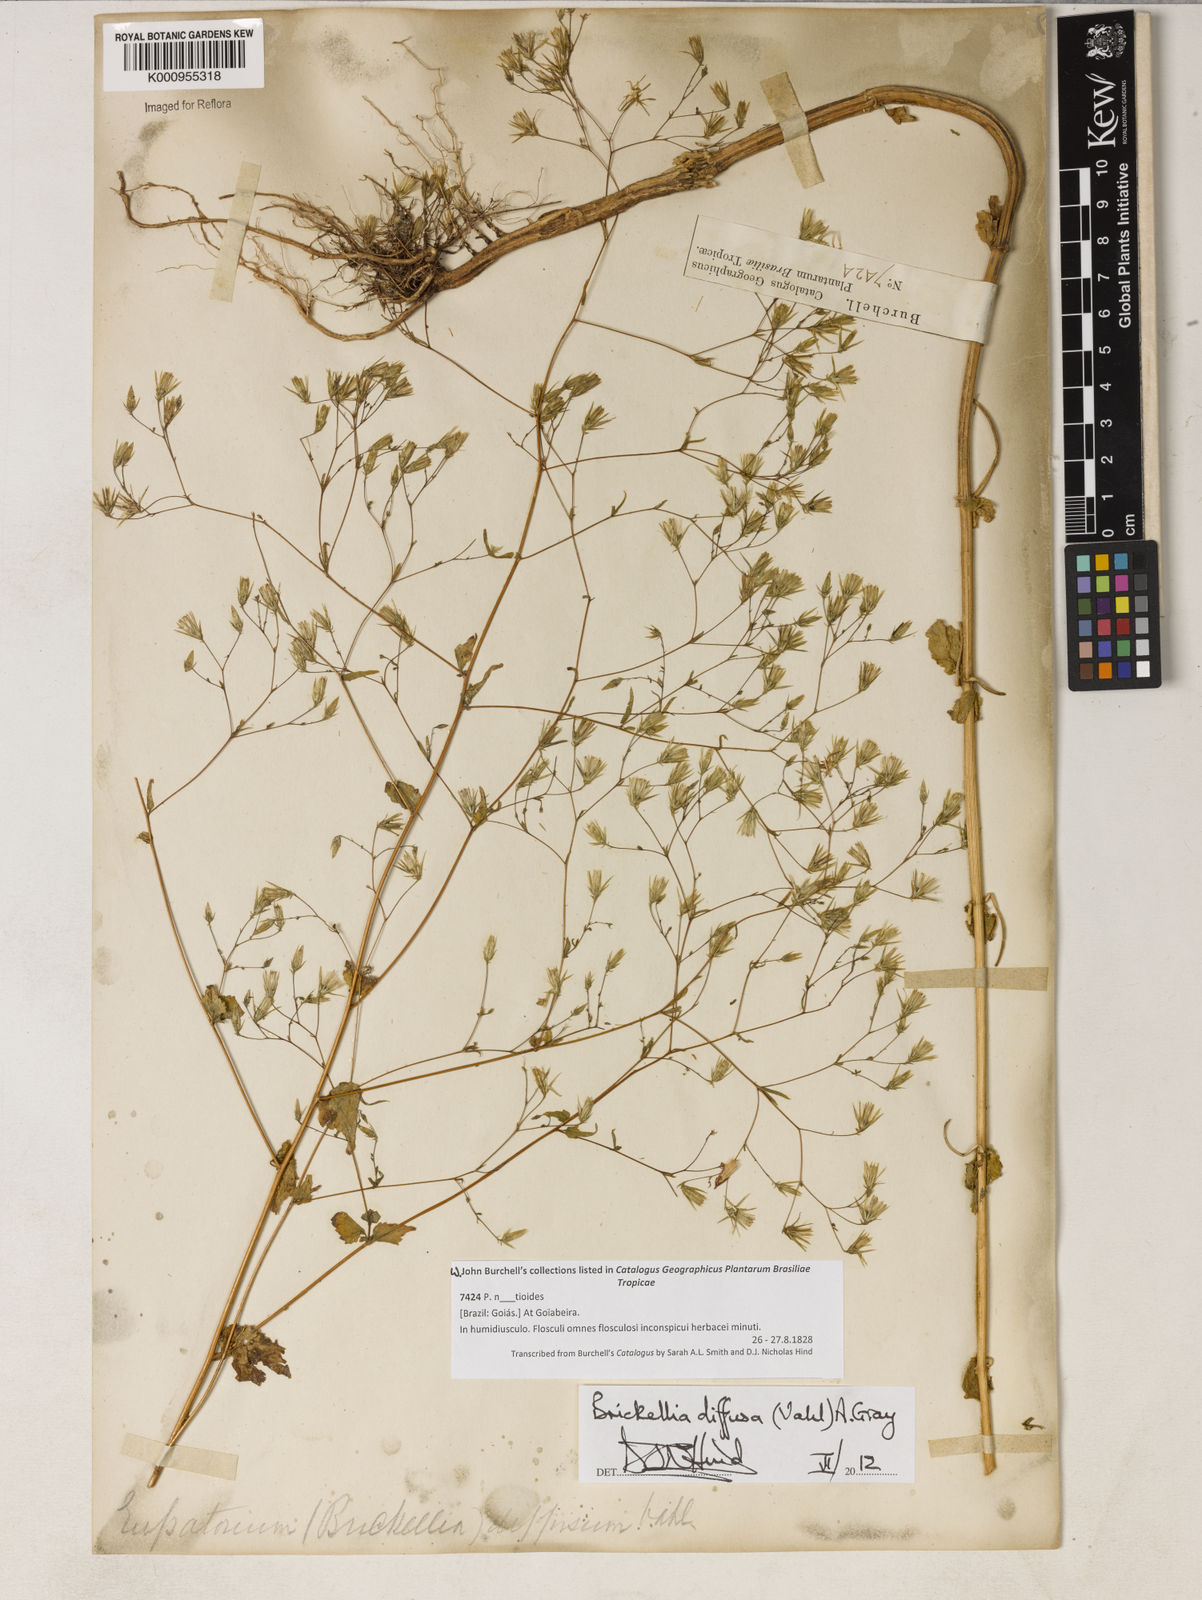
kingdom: Plantae
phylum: Tracheophyta
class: Magnoliopsida
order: Asterales
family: Asteraceae
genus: Brickellia
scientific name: Brickellia diffusa
